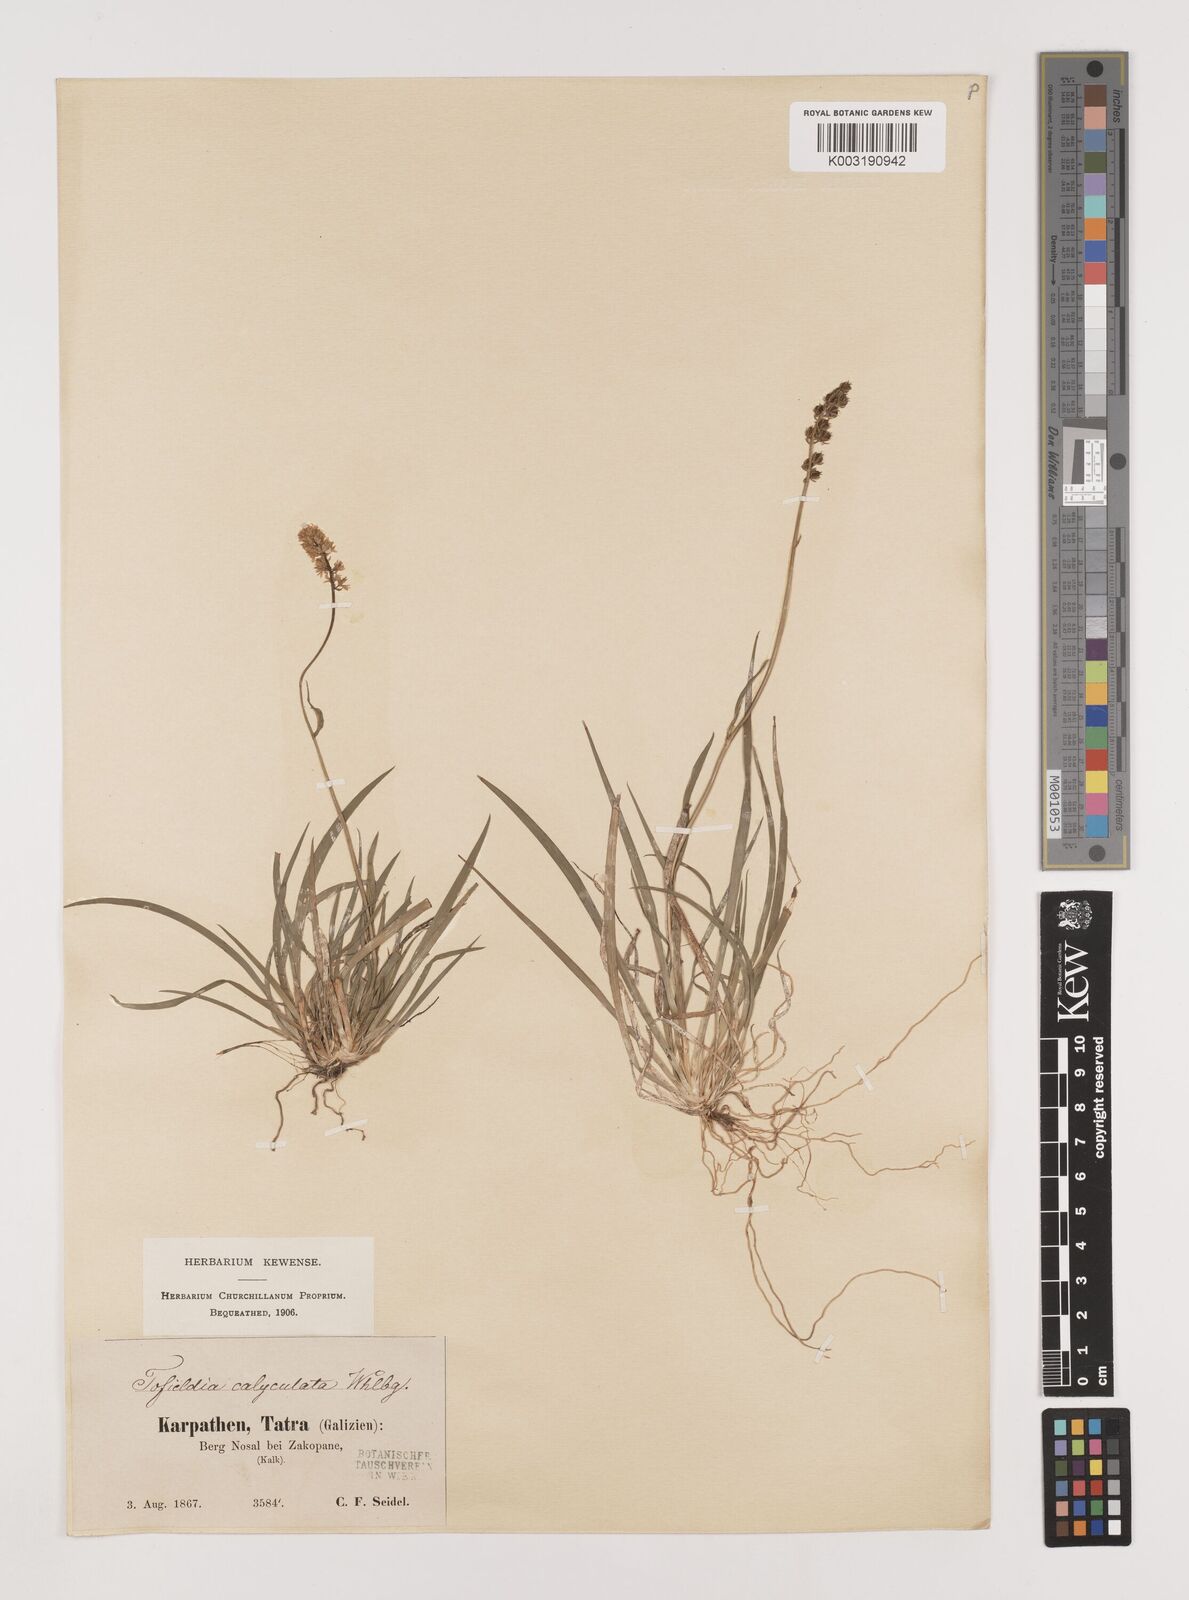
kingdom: Plantae
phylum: Tracheophyta
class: Liliopsida
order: Alismatales
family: Tofieldiaceae
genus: Tofieldia
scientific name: Tofieldia calyculata
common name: German-asphodel
